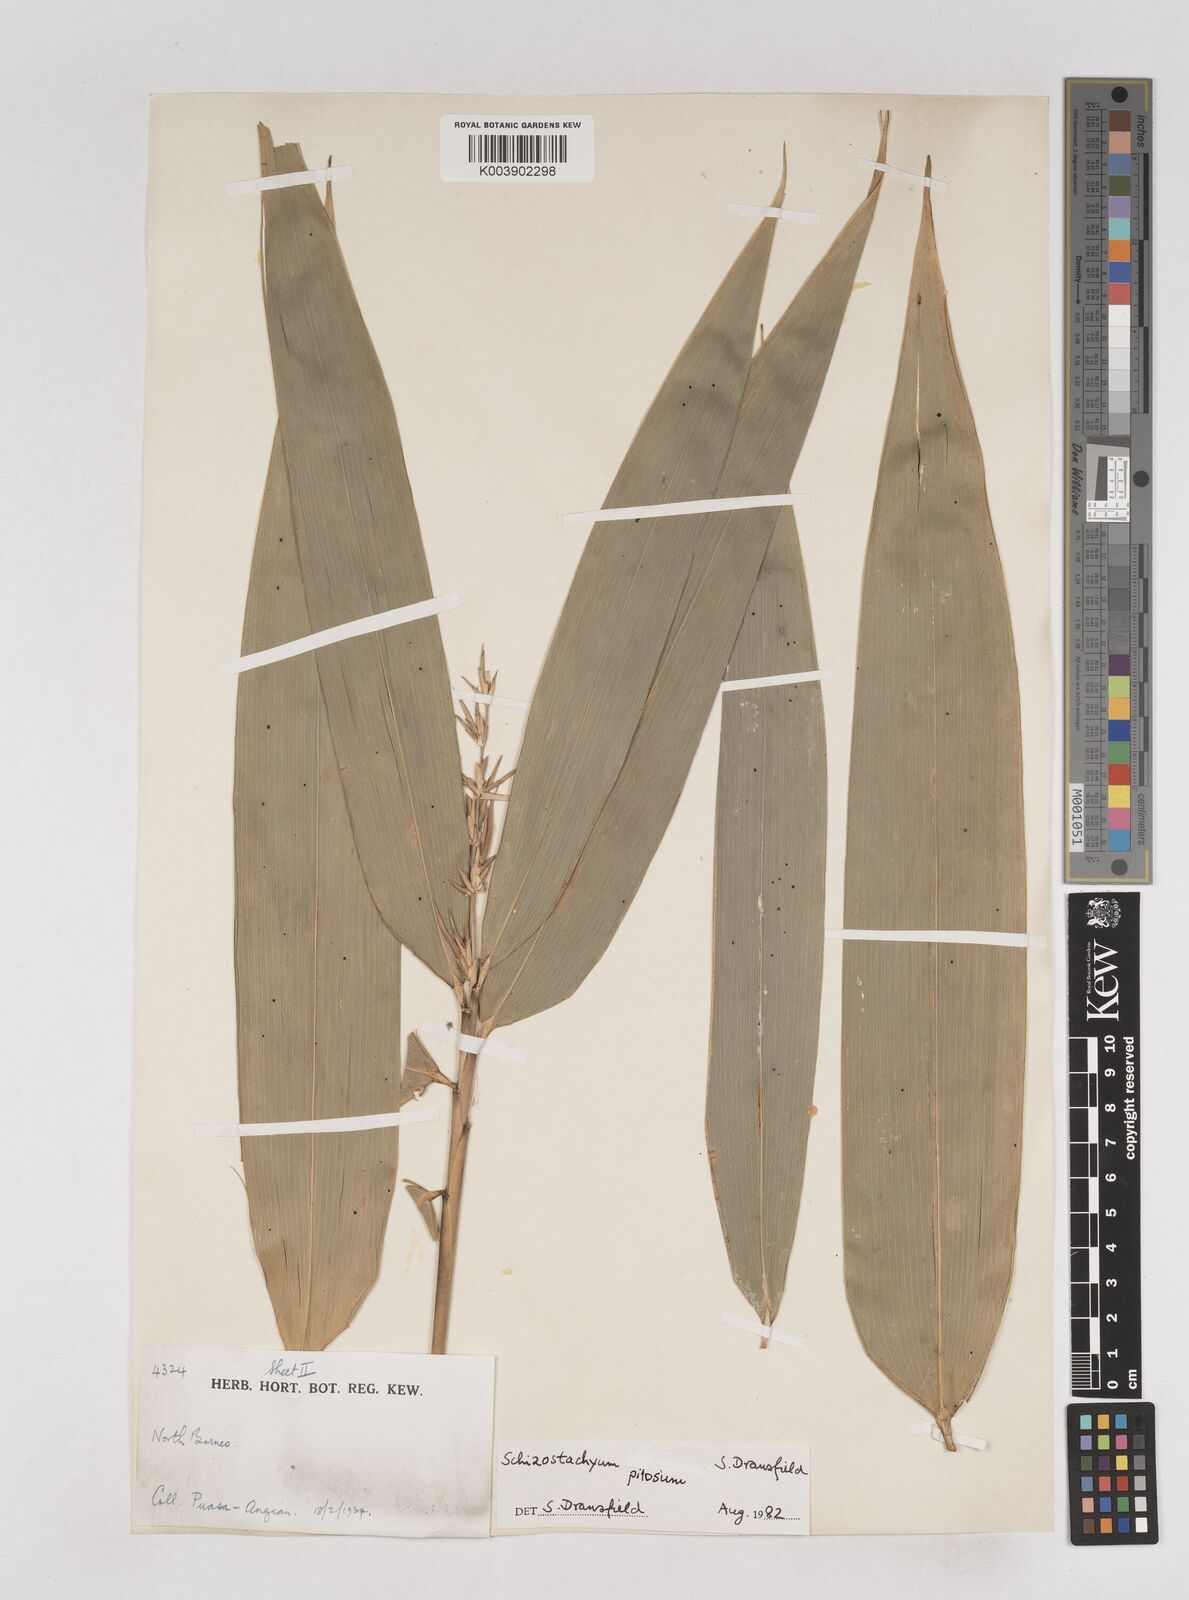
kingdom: Plantae
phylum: Tracheophyta
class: Liliopsida
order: Poales
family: Poaceae
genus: Schizostachyum
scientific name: Schizostachyum pilosum
